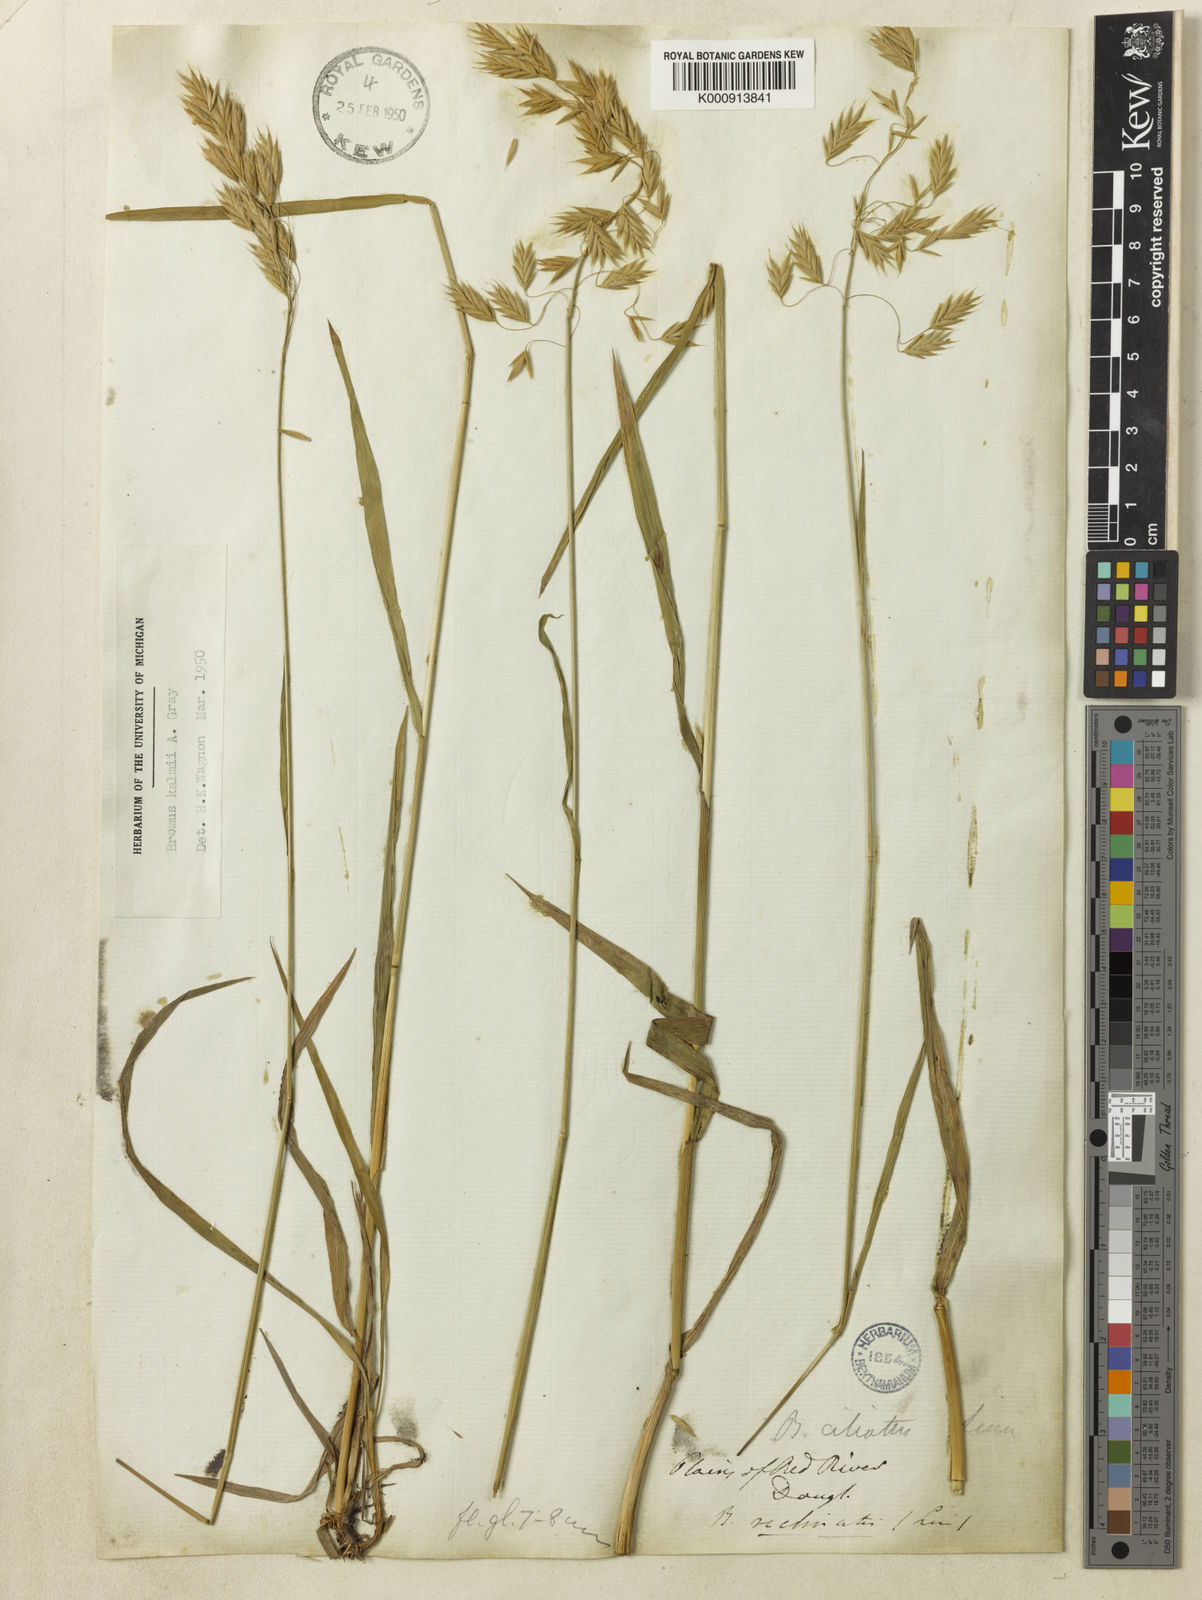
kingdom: Plantae
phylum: Tracheophyta
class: Liliopsida
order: Poales
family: Poaceae
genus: Bromus
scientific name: Bromus kalmii
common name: Kalm brome
